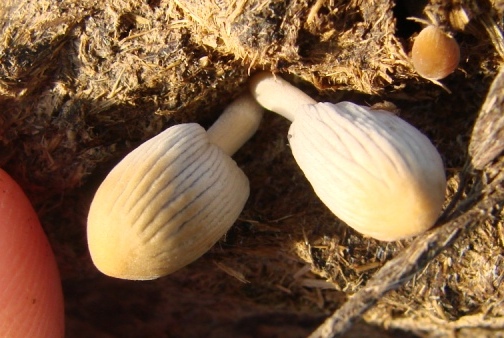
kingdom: Fungi
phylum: Basidiomycota
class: Agaricomycetes
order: Agaricales
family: Psathyrellaceae
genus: Tulosesus
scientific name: Tulosesus brevisetulosus
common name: korthåret blækhat
